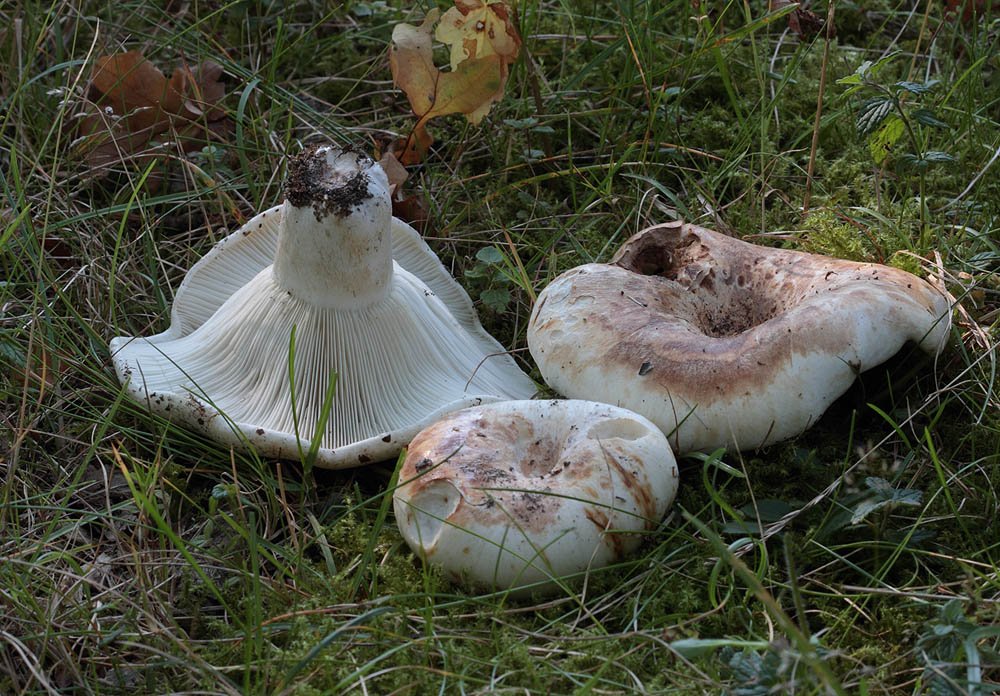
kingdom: Fungi
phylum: Basidiomycota
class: Agaricomycetes
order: Russulales
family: Russulaceae
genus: Russula
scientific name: Russula chloroides
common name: grønhalset tragt-skørhat
